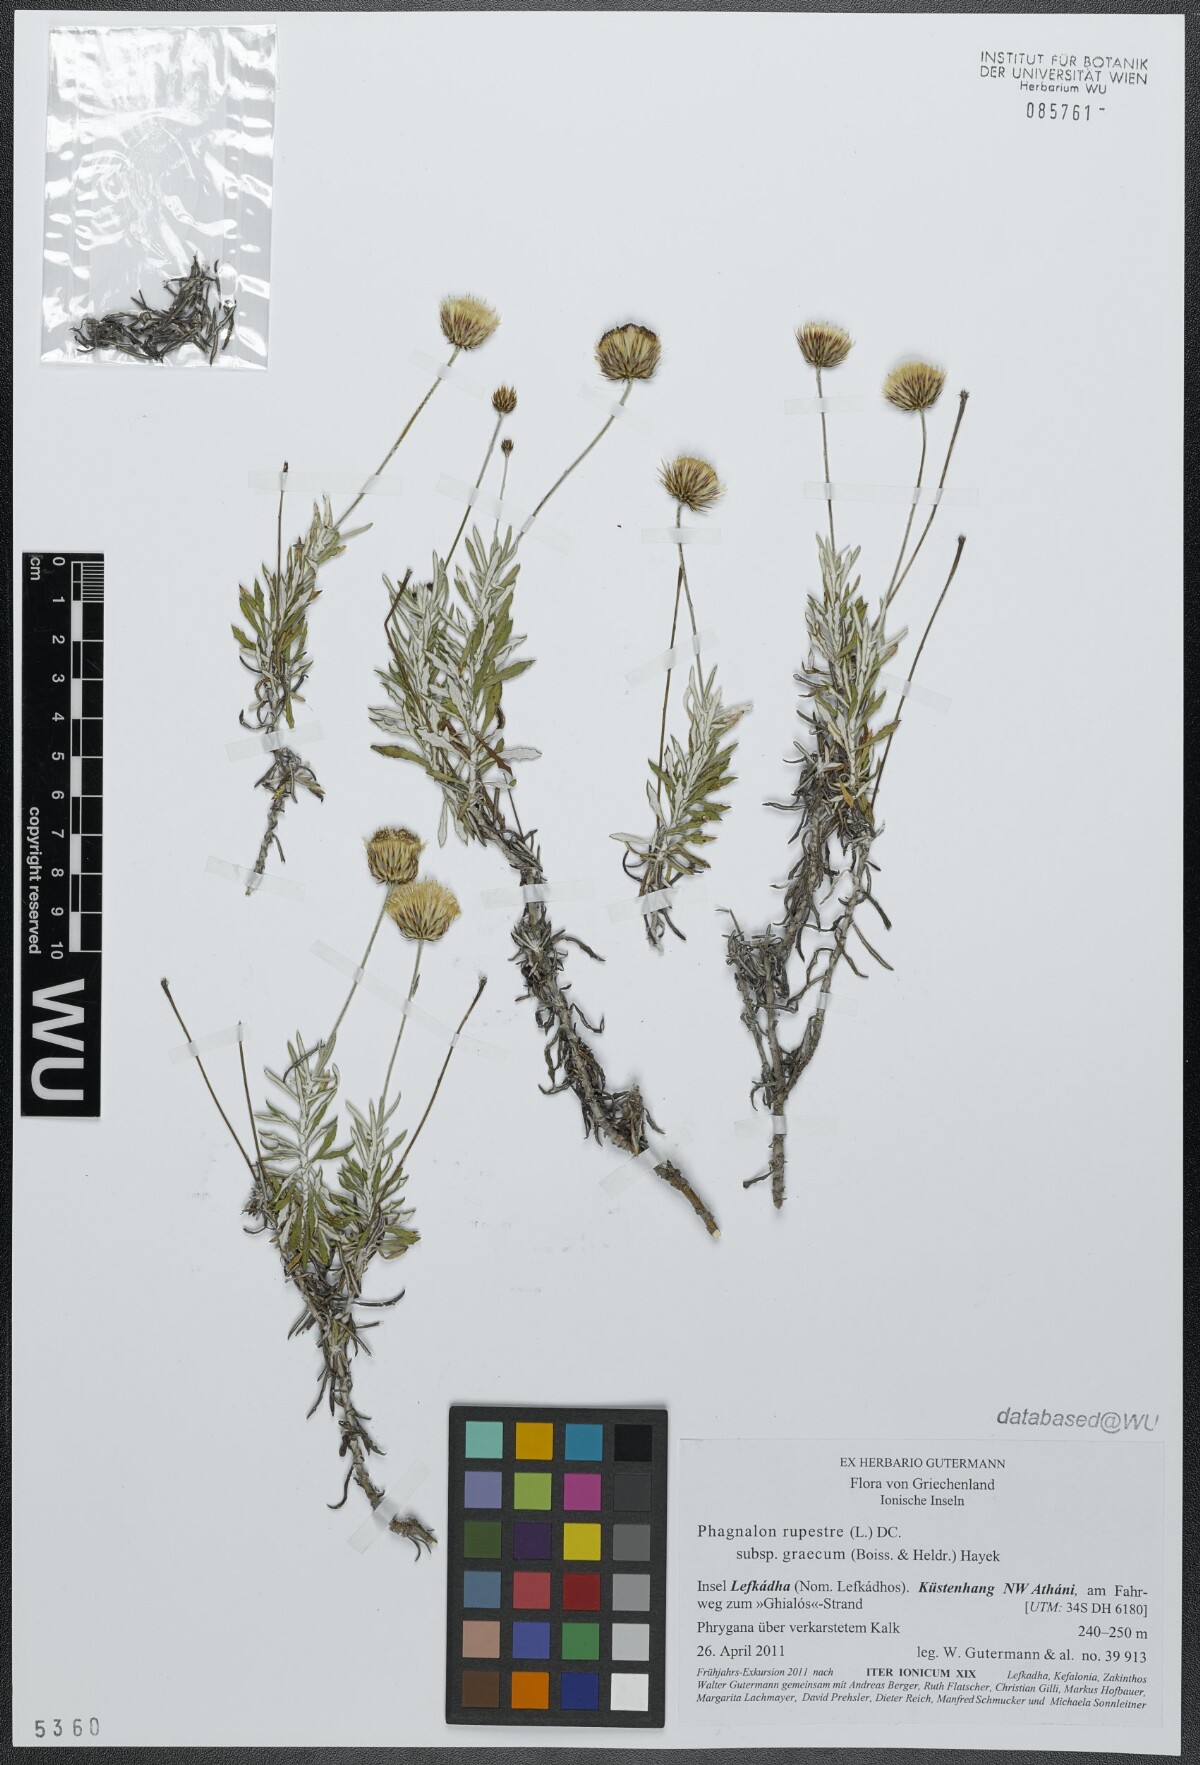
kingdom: Plantae
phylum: Tracheophyta
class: Magnoliopsida
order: Asterales
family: Asteraceae
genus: Phagnalon
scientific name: Phagnalon graecum
